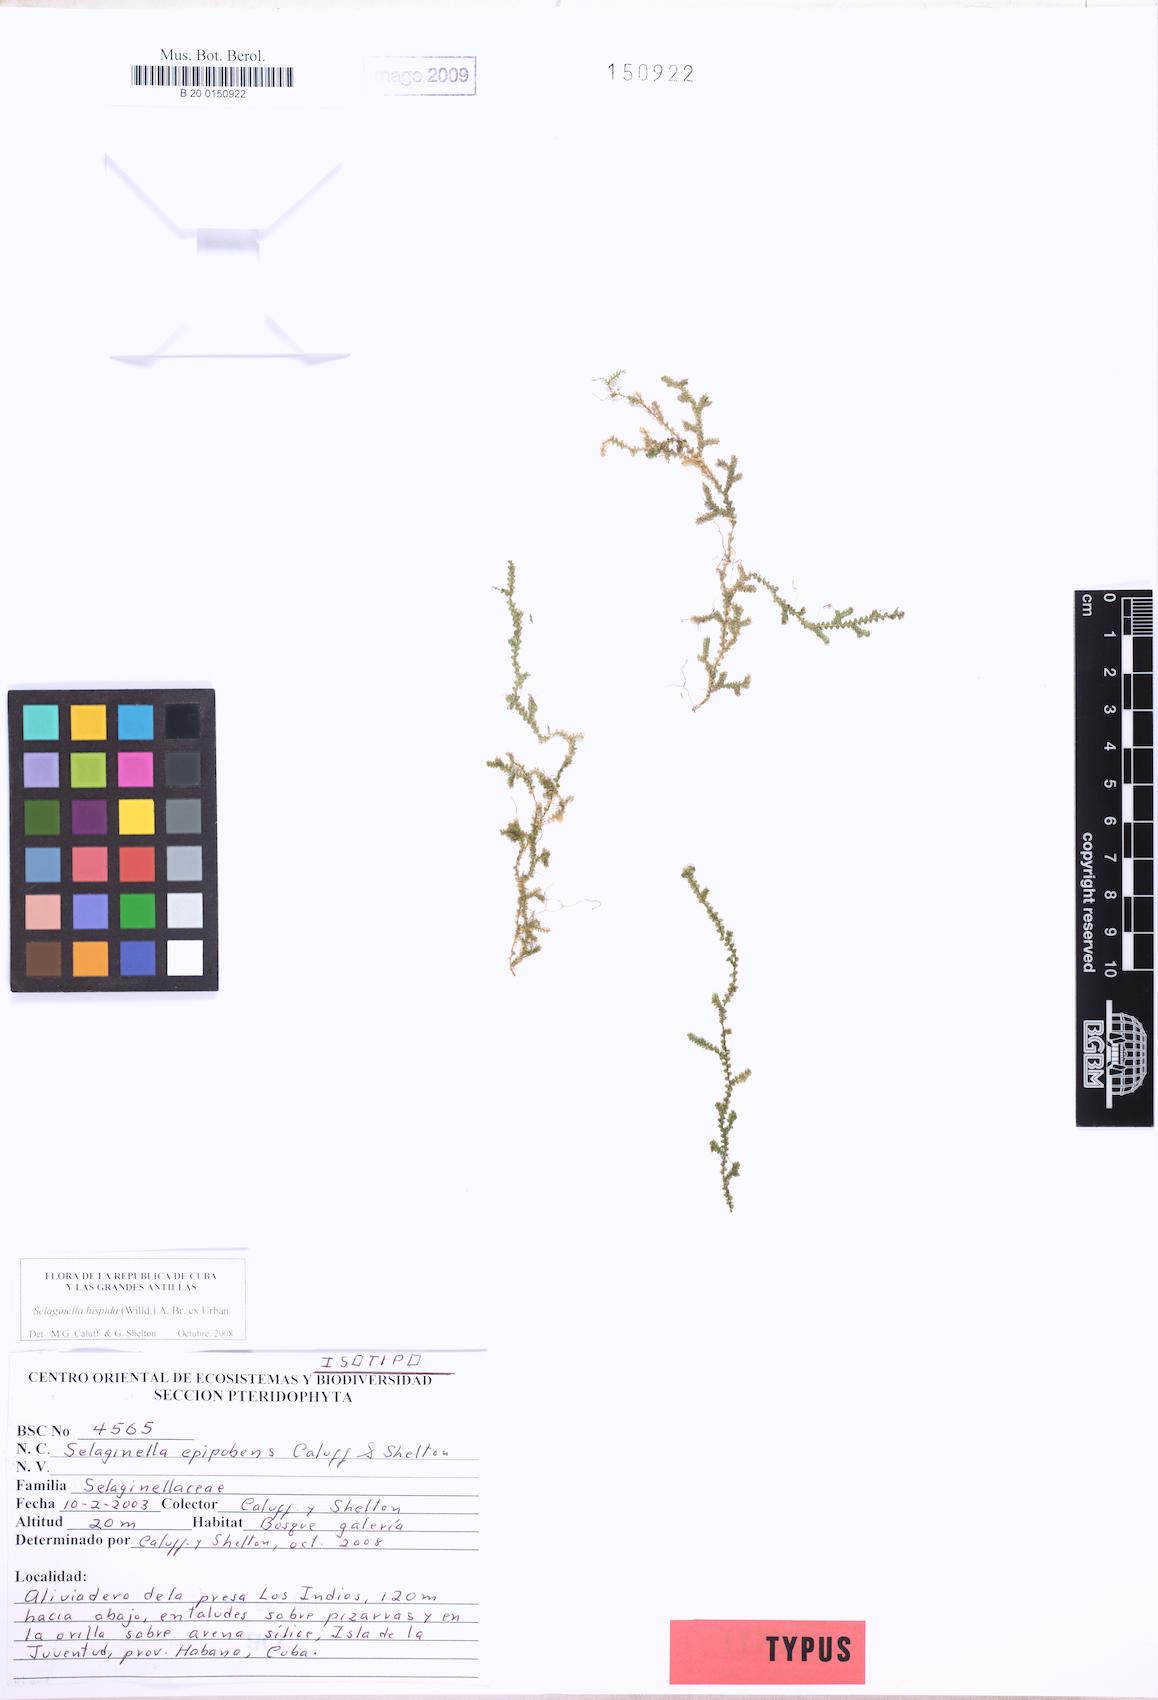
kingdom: Plantae
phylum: Tracheophyta
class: Lycopodiopsida
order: Selaginellales
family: Selaginellaceae
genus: Selaginella
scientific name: Selaginella epipubens
